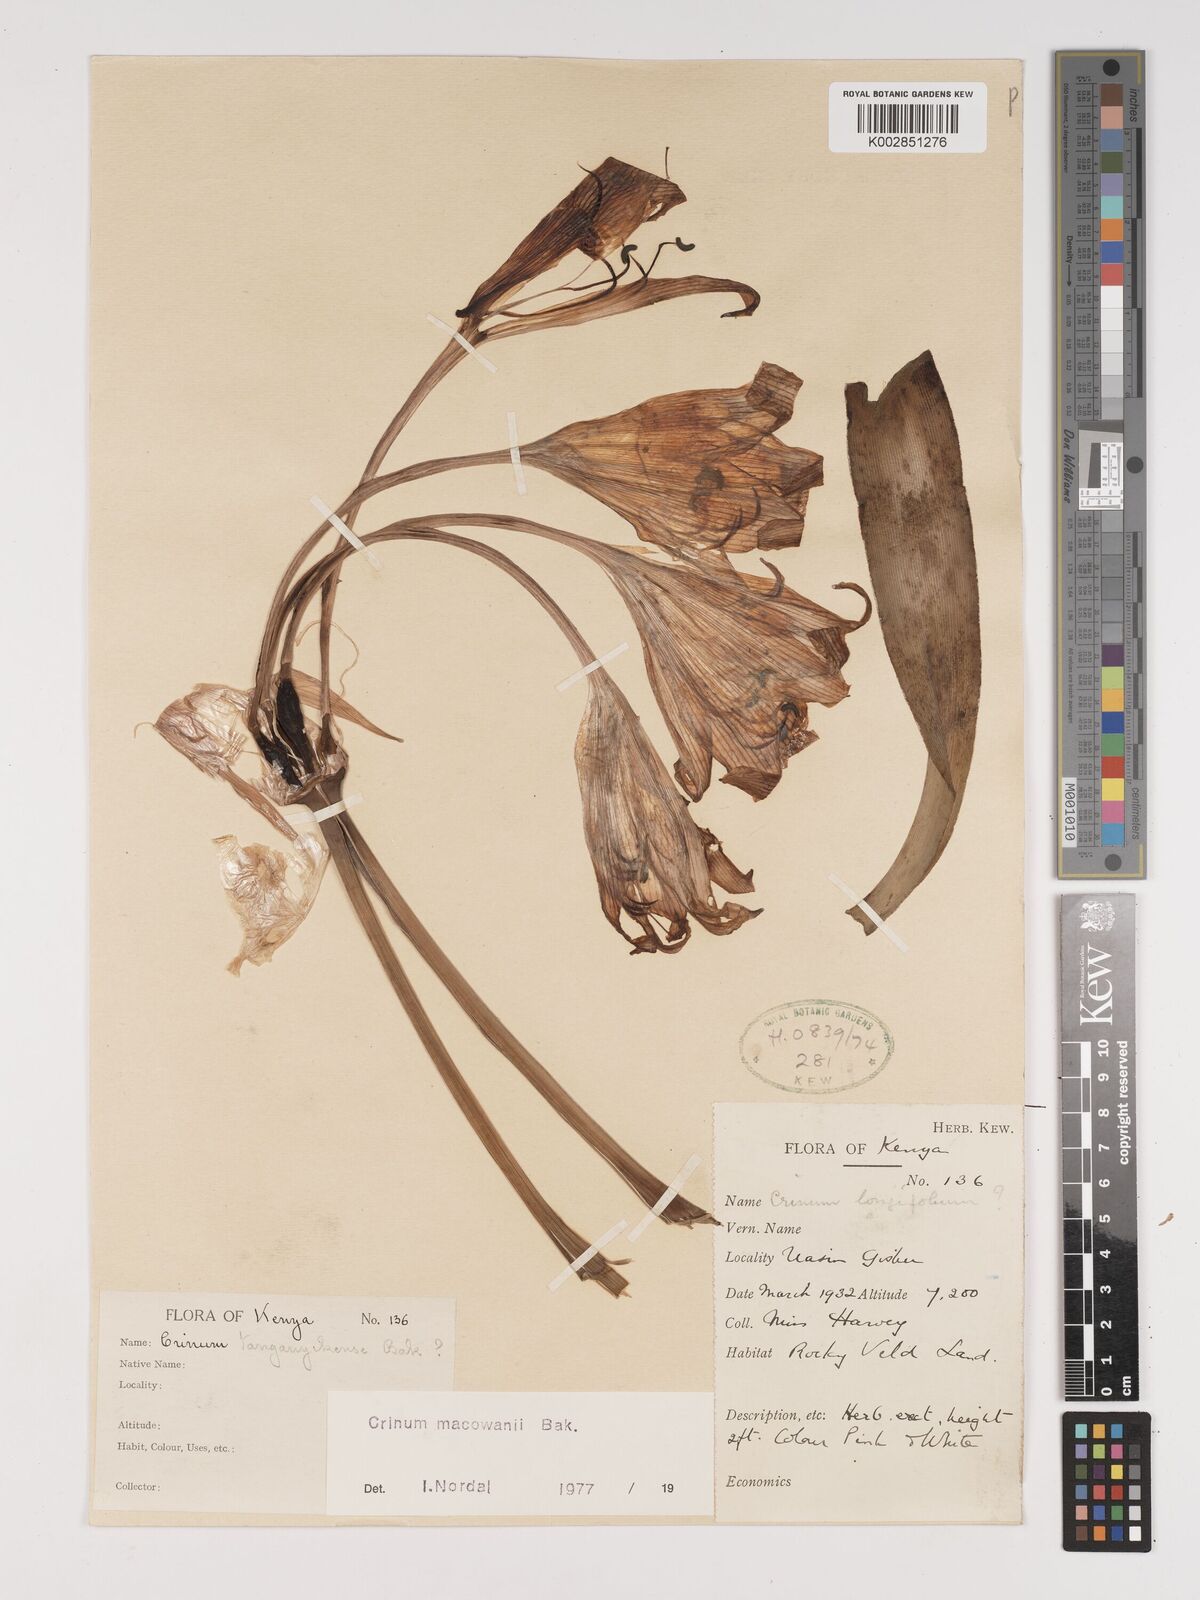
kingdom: Plantae
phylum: Tracheophyta
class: Liliopsida
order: Asparagales
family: Amaryllidaceae
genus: Crinum
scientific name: Crinum macowanii
